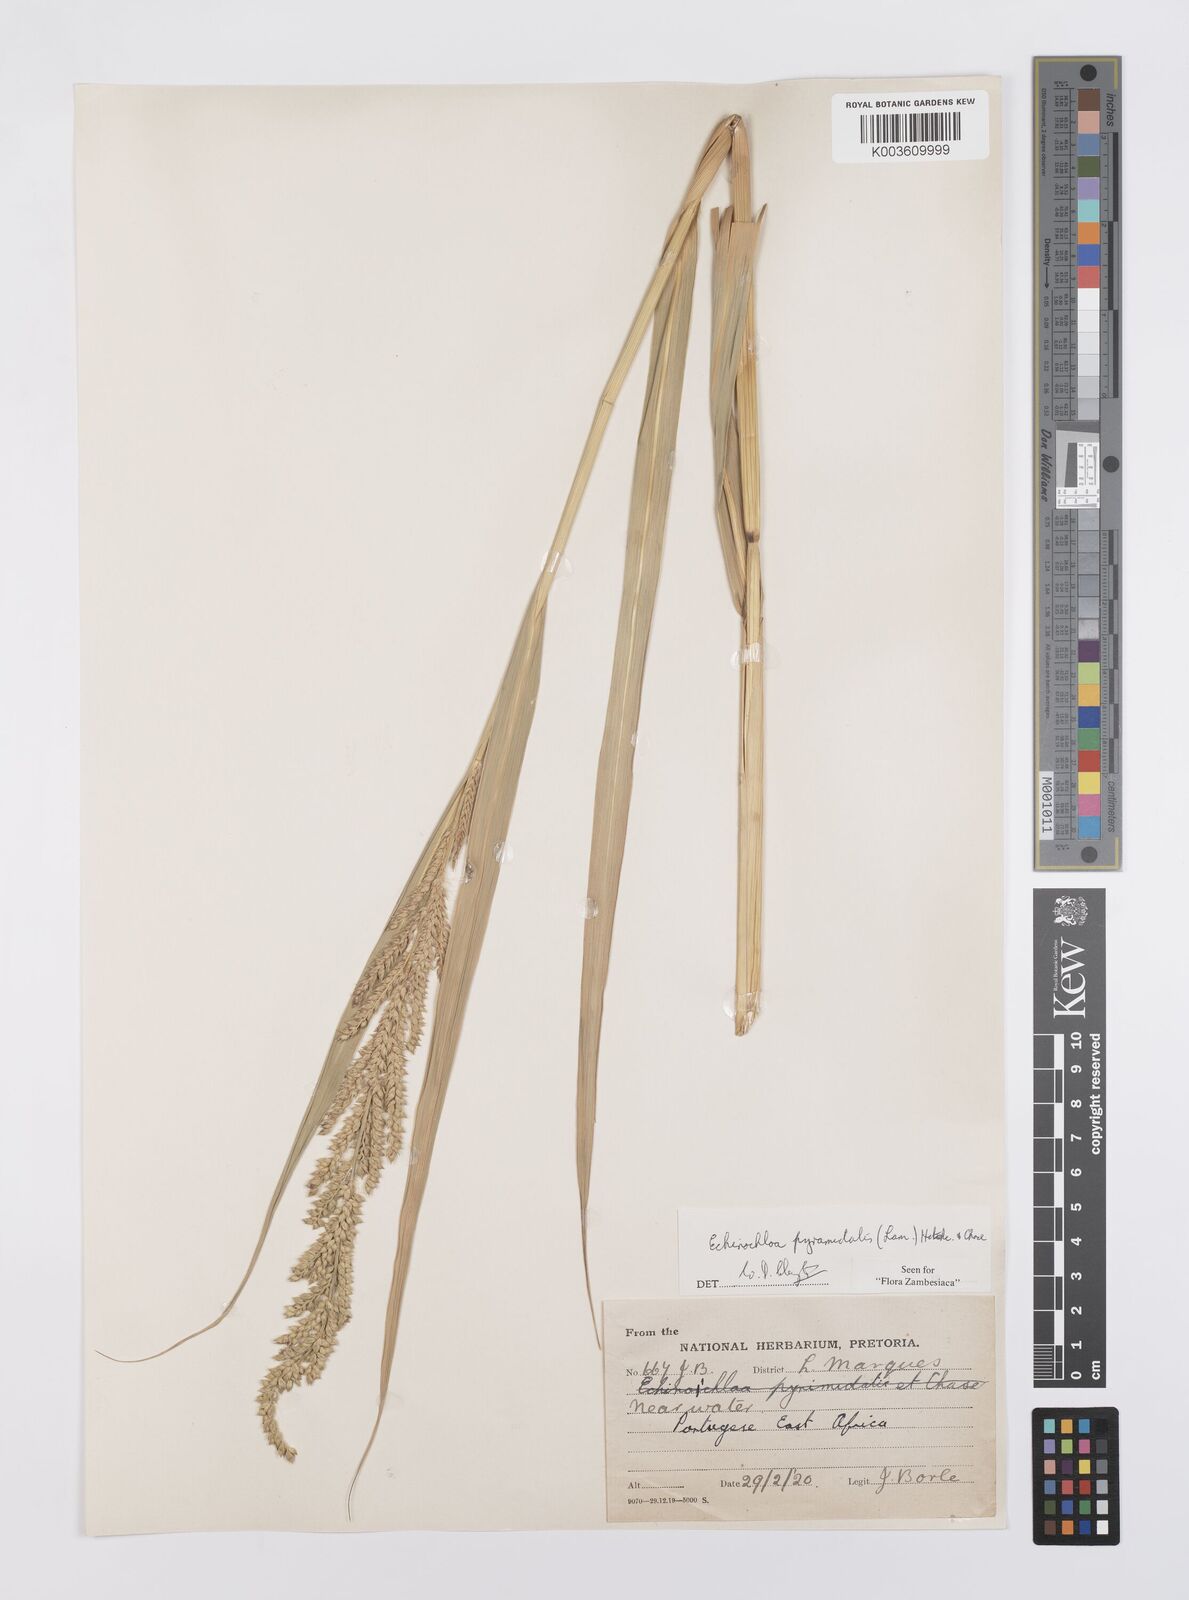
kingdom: Plantae
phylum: Tracheophyta
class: Liliopsida
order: Poales
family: Poaceae
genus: Echinochloa
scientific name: Echinochloa pyramidalis
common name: Antelope grass
